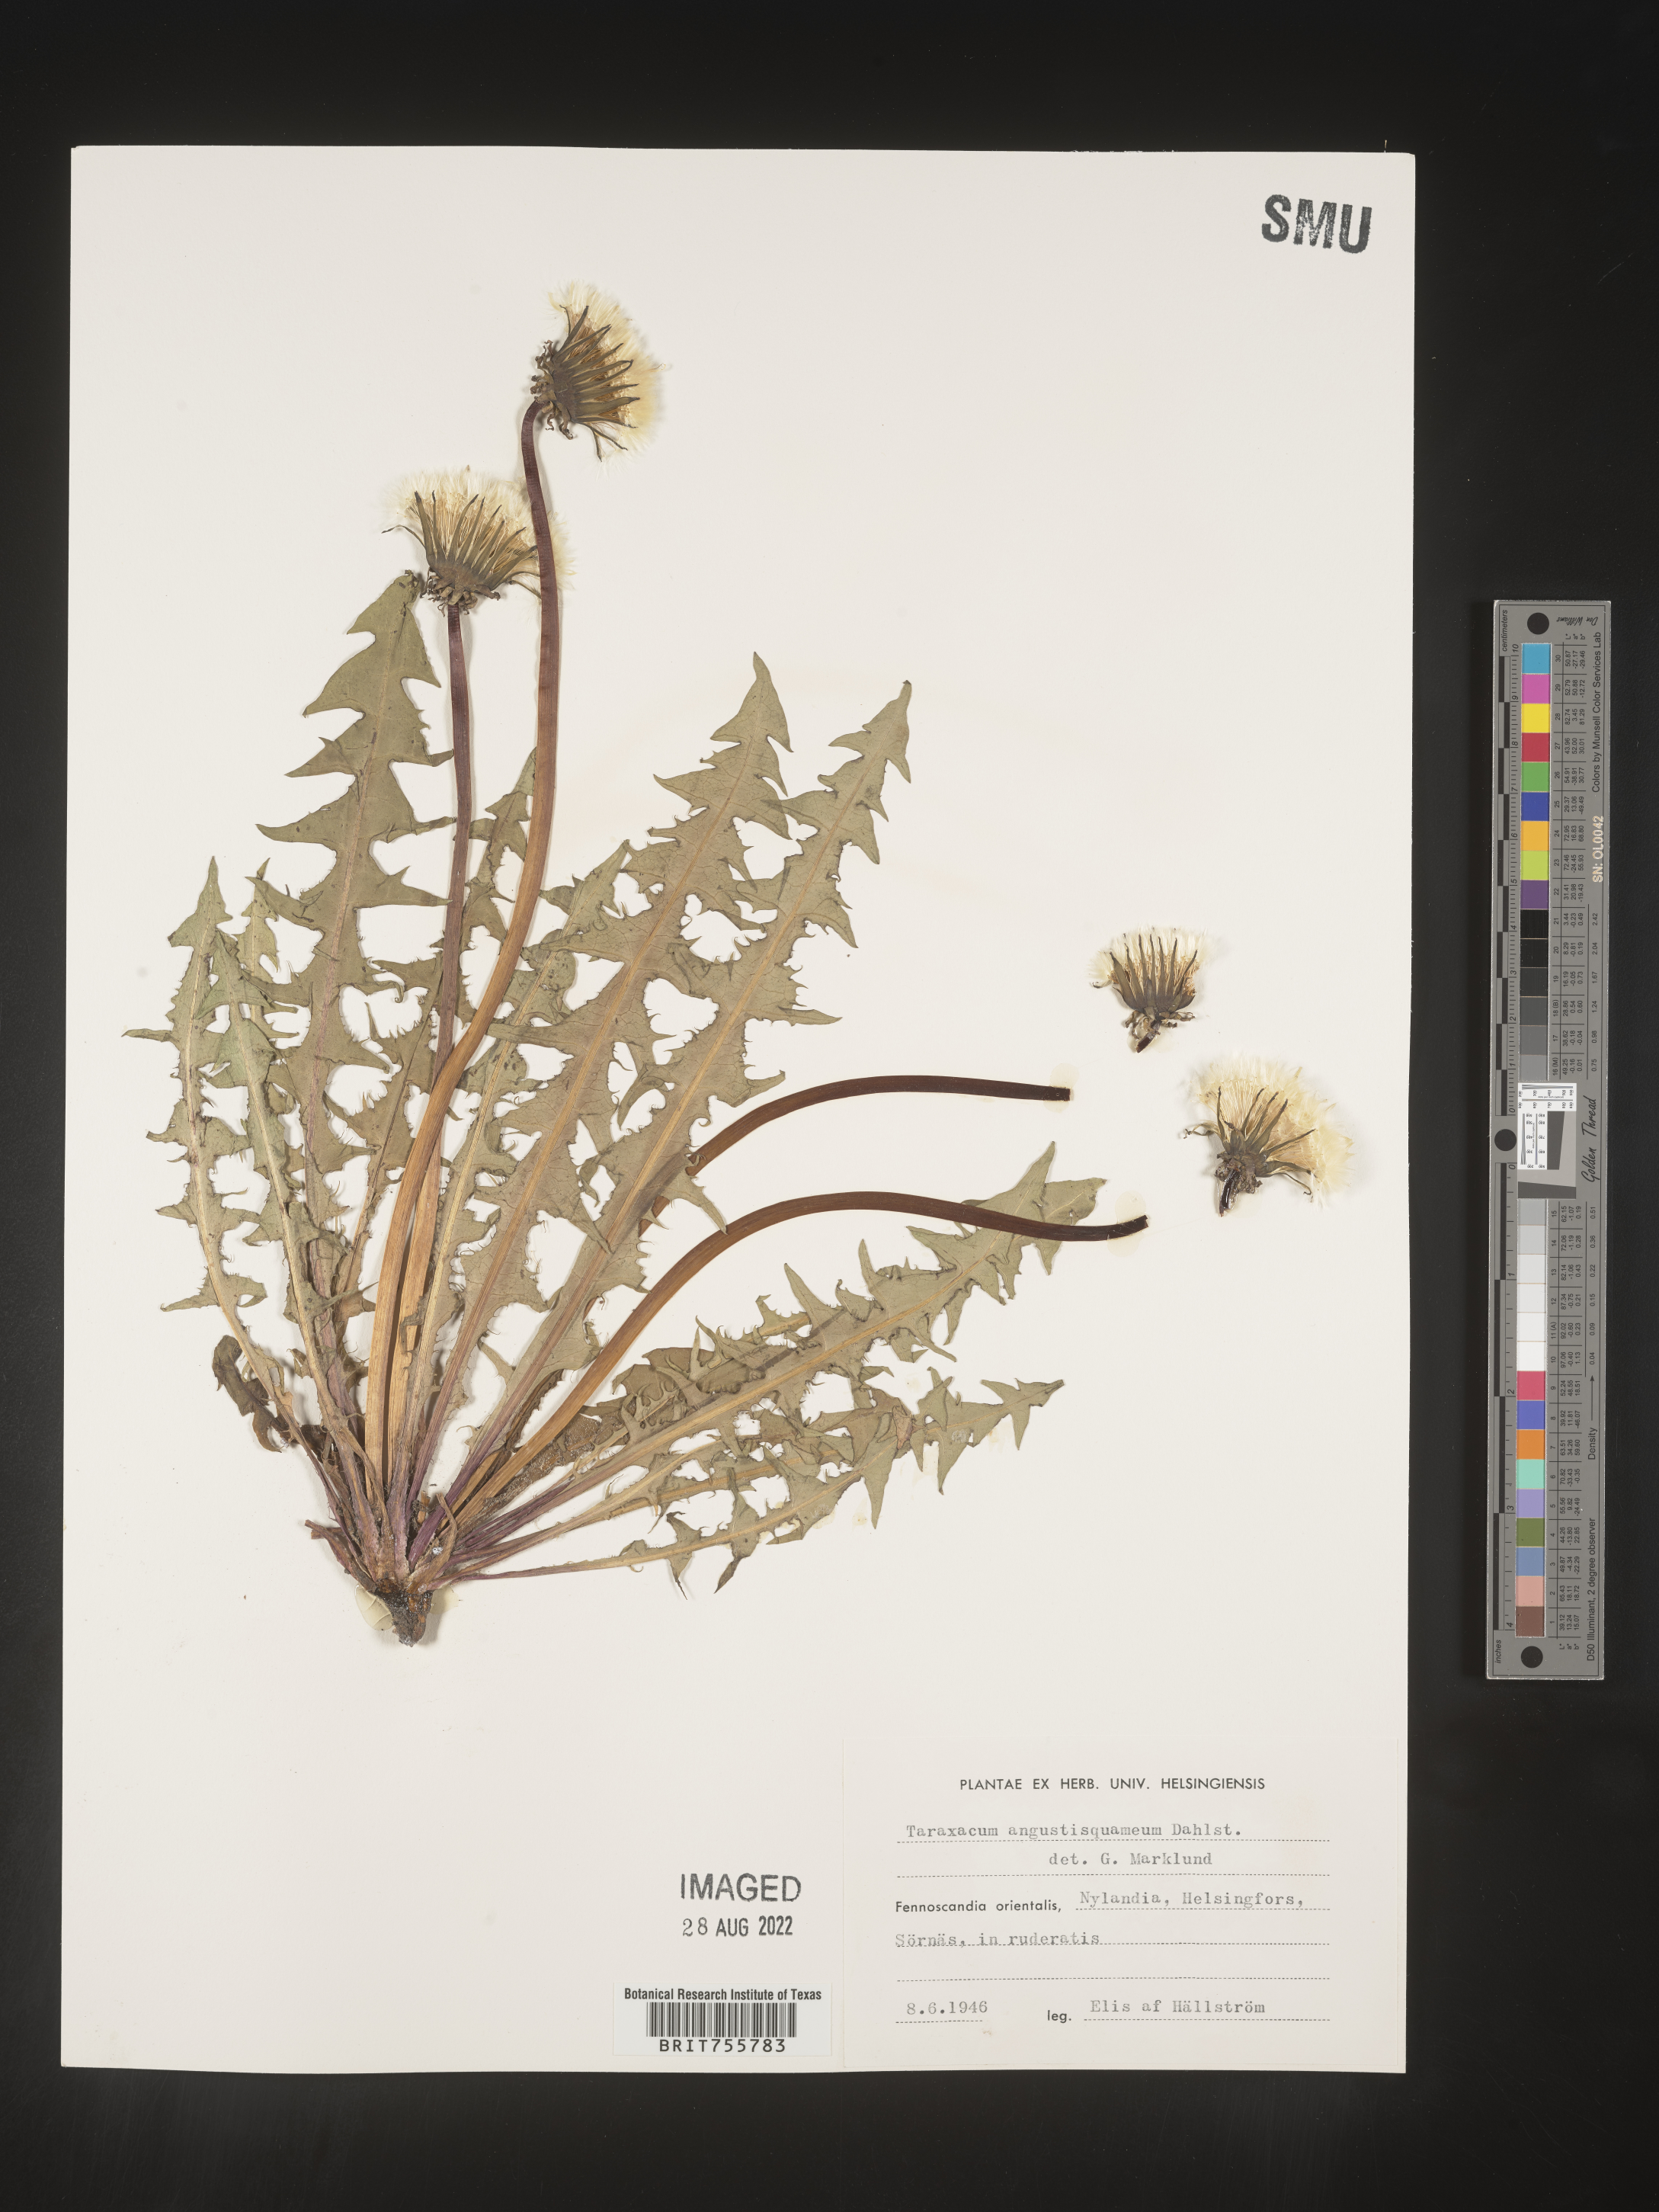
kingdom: Plantae
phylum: Tracheophyta
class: Magnoliopsida
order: Asterales
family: Asteraceae
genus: Taraxacum
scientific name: Taraxacum
